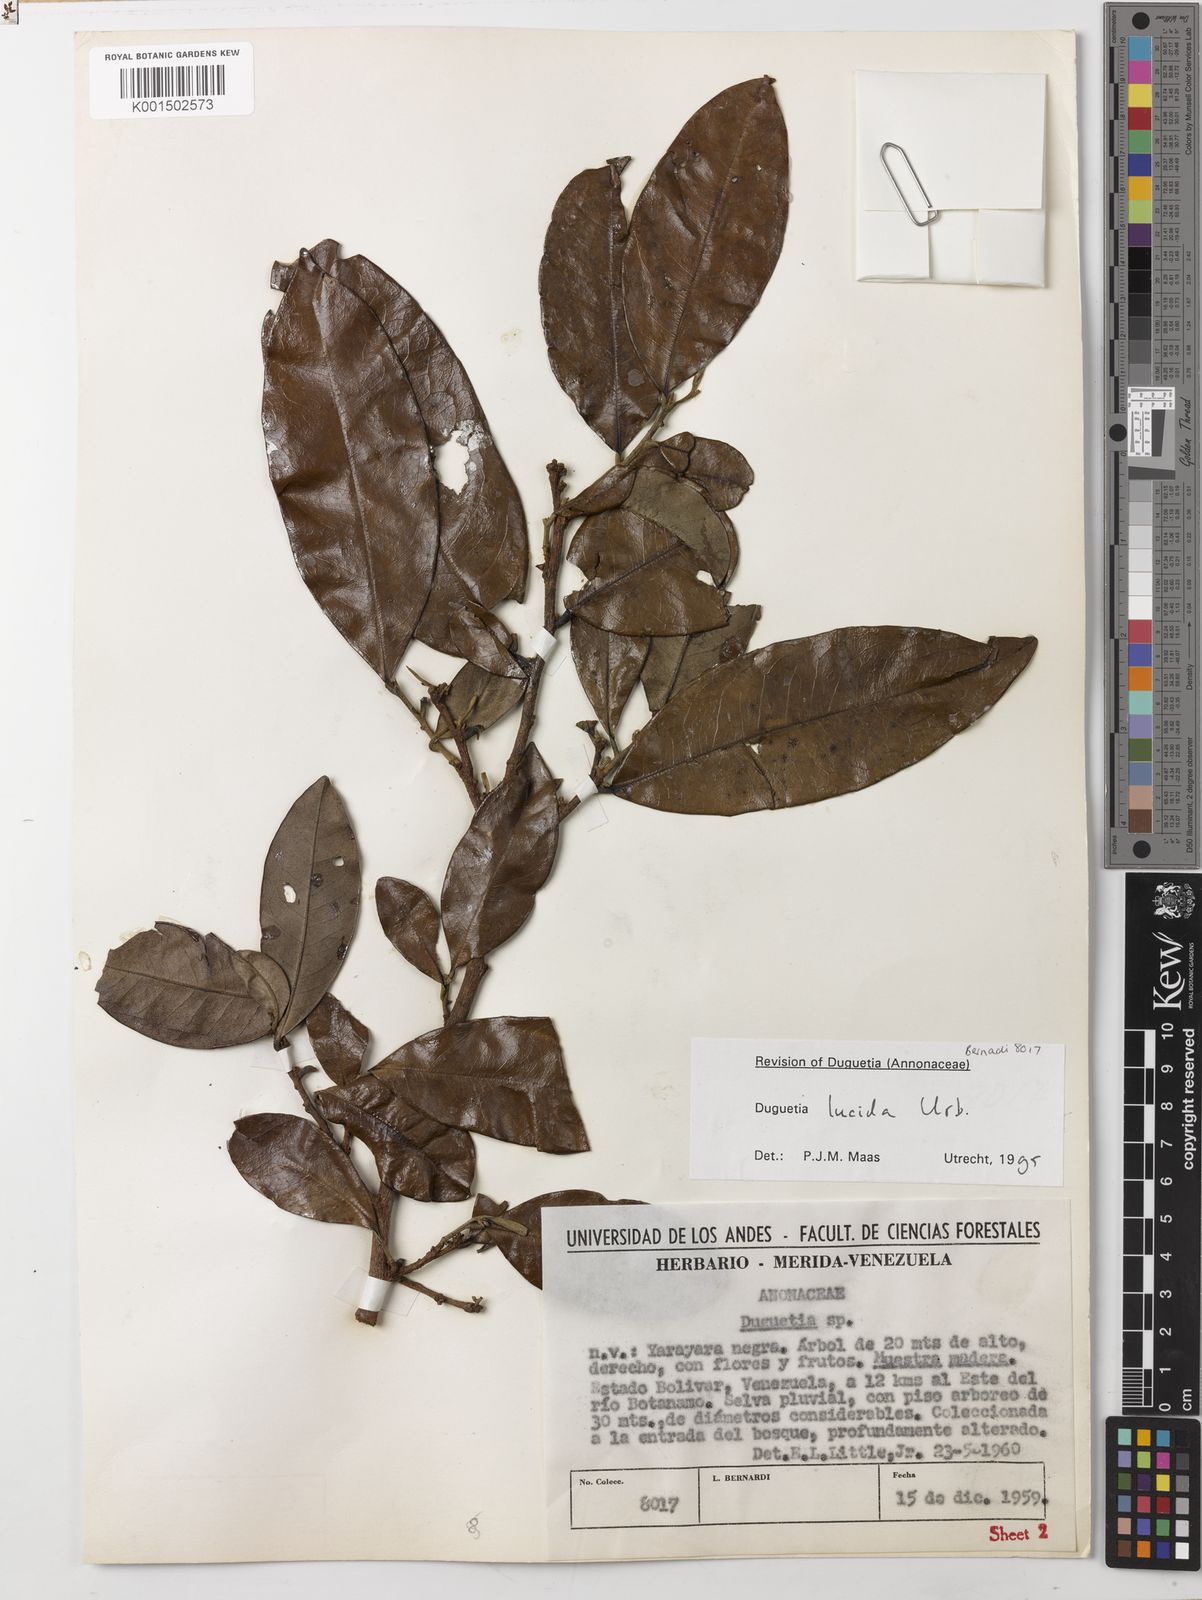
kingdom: Plantae
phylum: Tracheophyta
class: Magnoliopsida
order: Magnoliales
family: Annonaceae
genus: Duguetia
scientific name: Duguetia lucida
